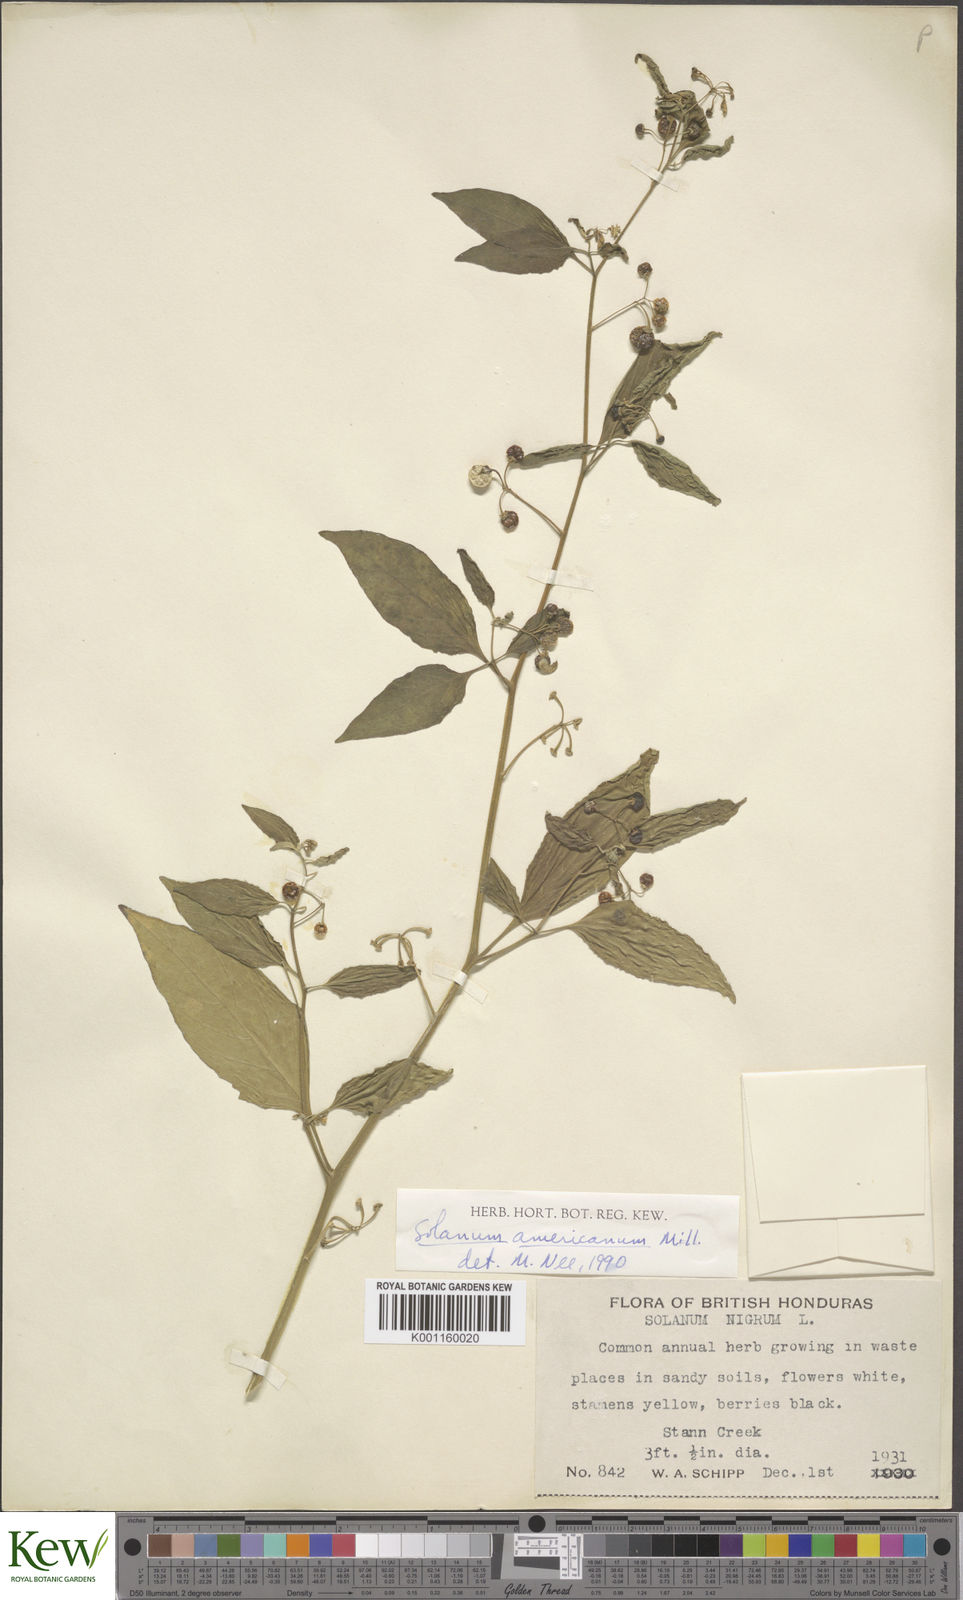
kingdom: Plantae
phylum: Tracheophyta
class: Magnoliopsida
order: Solanales
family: Solanaceae
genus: Solanum
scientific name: Solanum americanum
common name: American black nightshade
